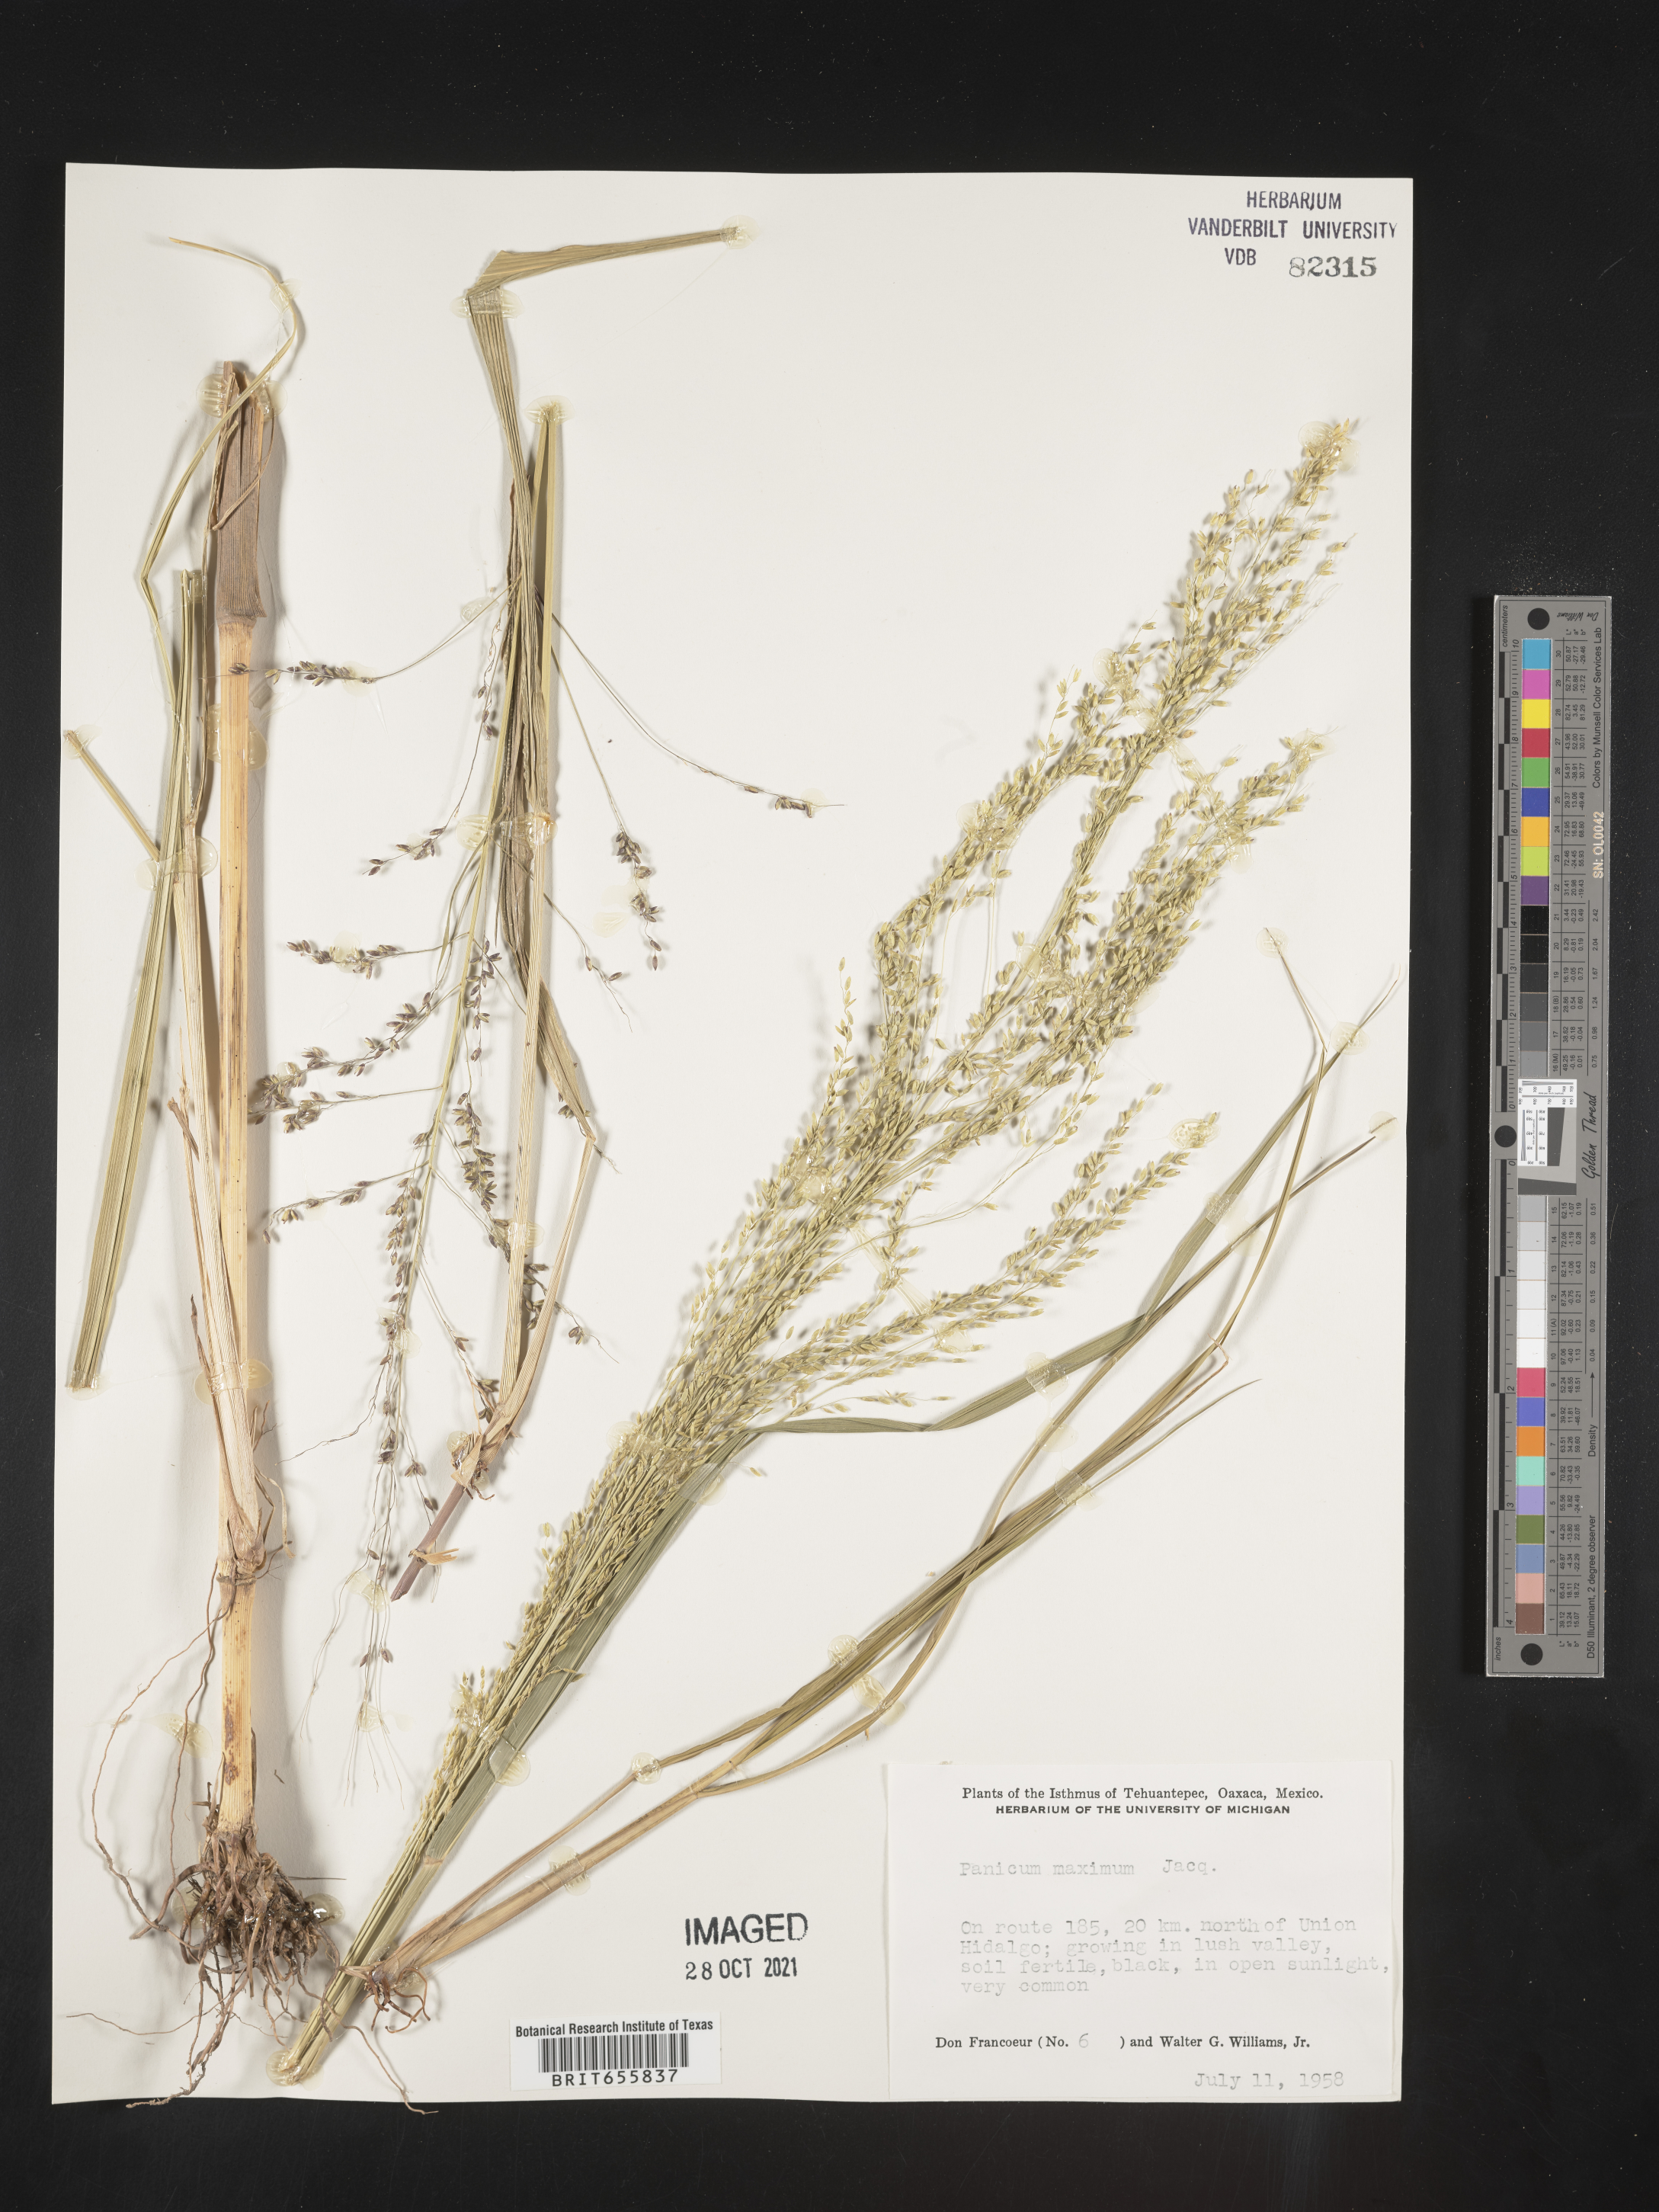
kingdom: Plantae
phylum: Tracheophyta
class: Liliopsida
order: Poales
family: Poaceae
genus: Panicum
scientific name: Panicum
